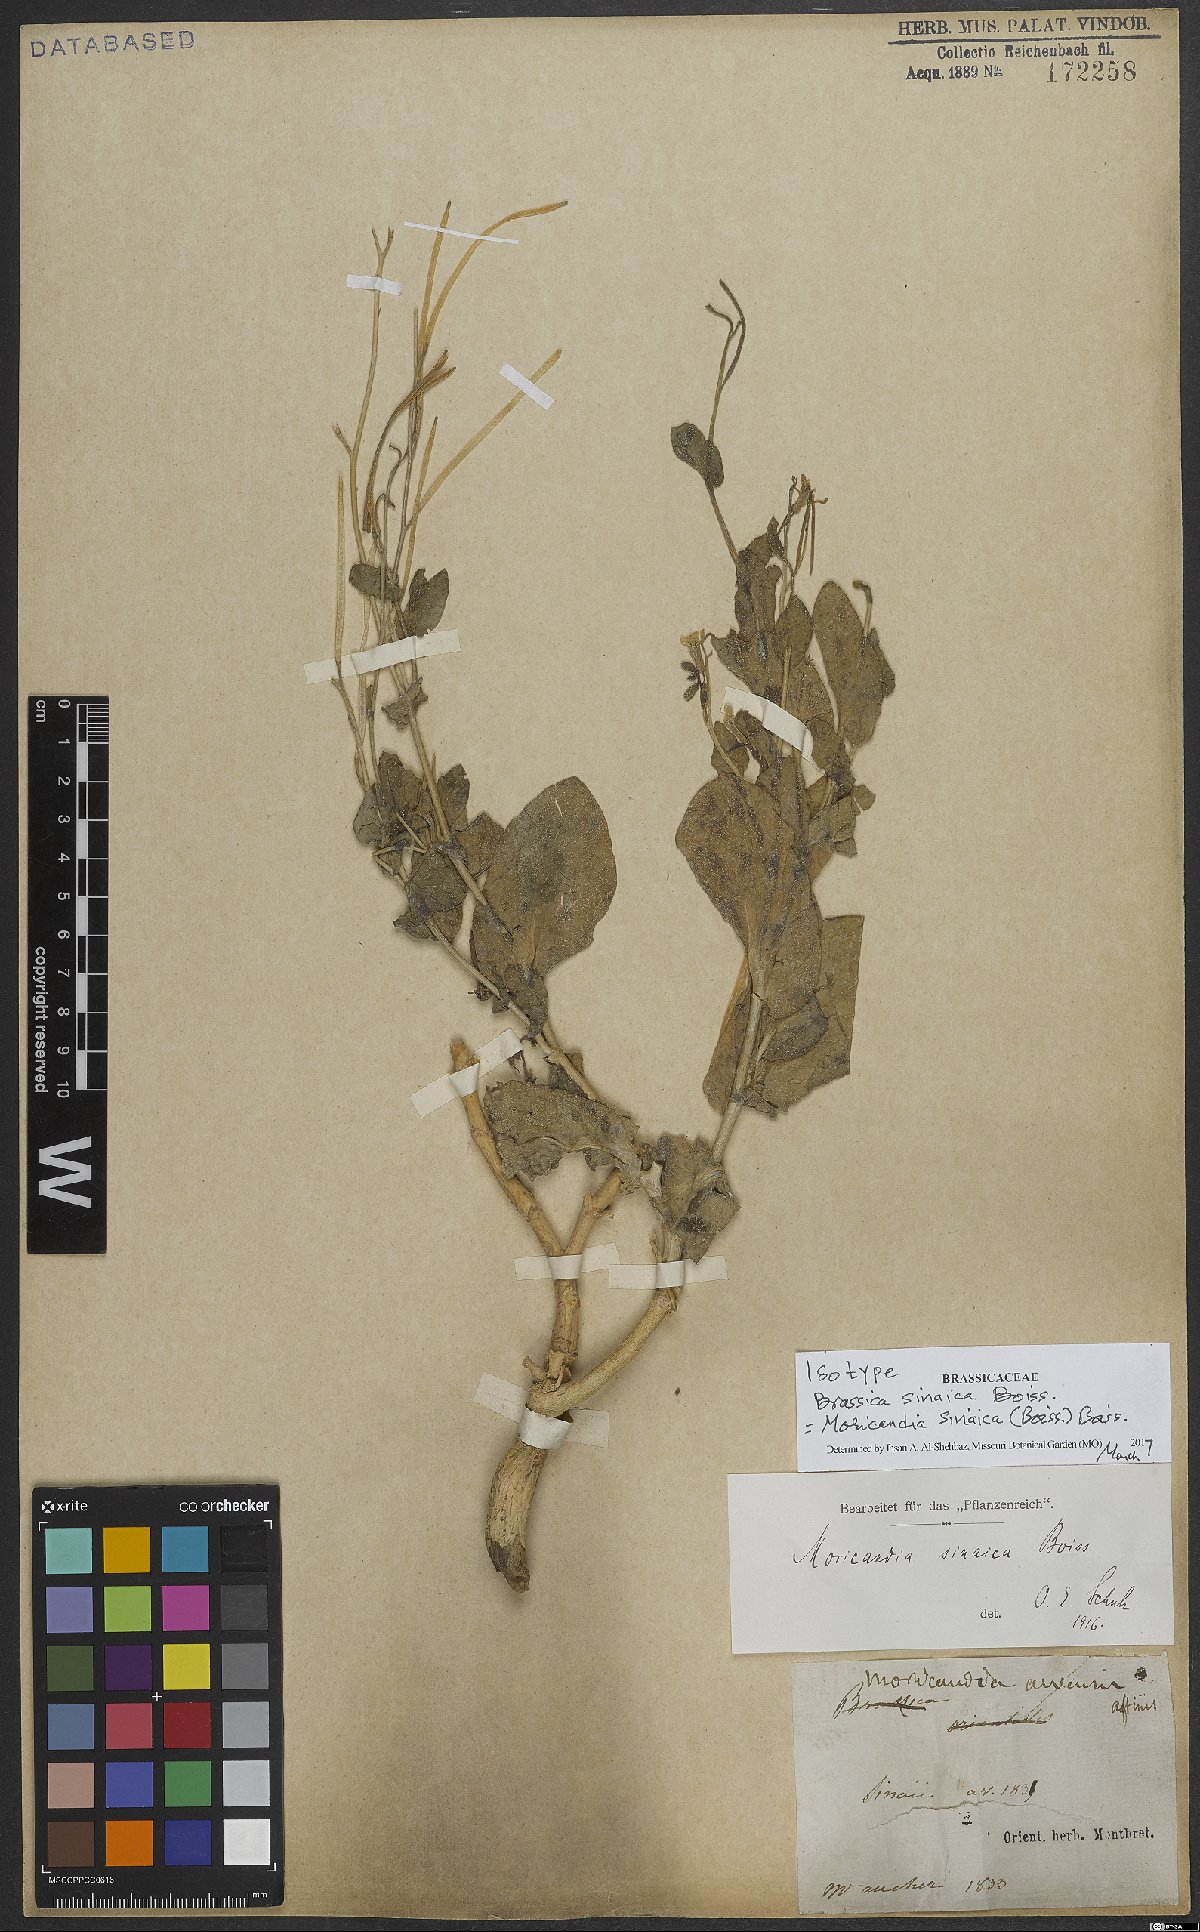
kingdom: Plantae
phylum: Tracheophyta
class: Magnoliopsida
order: Brassicales
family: Brassicaceae
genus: Moricandia
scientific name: Moricandia sinaica
